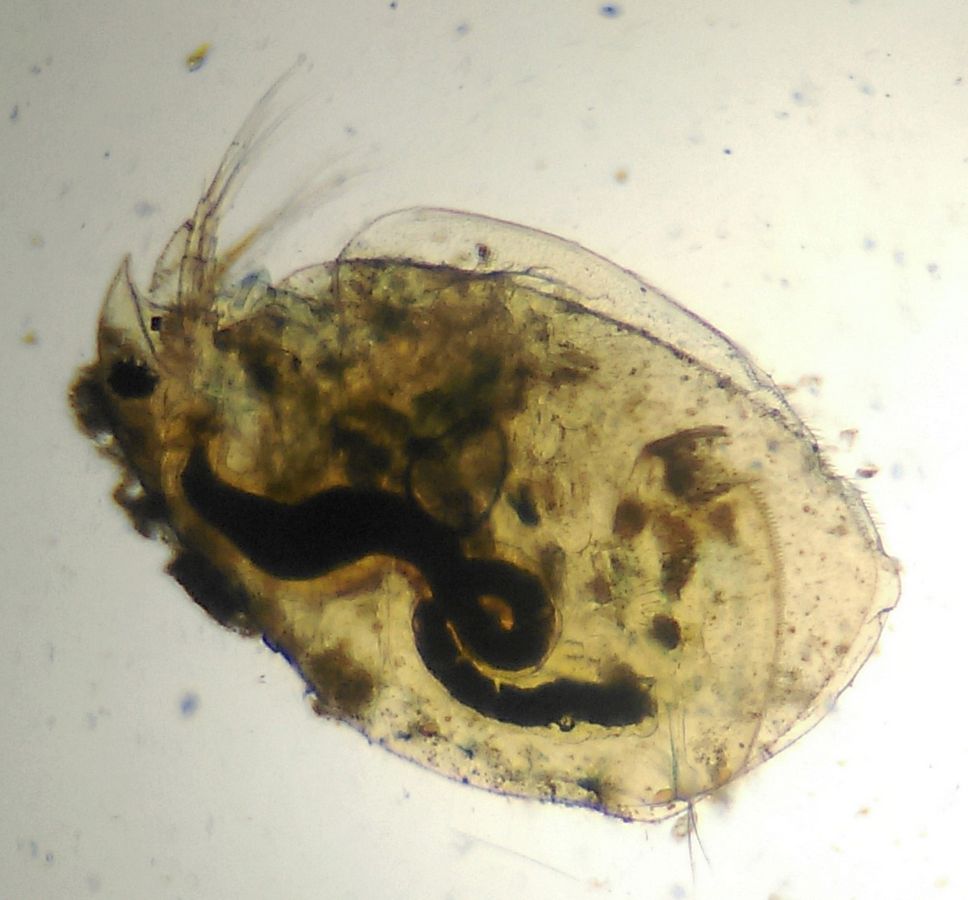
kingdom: Animalia
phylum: Arthropoda
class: Branchiopoda
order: Diplostraca
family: Eurycercidae
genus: Eurycercus
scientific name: Eurycercus lamellatus
